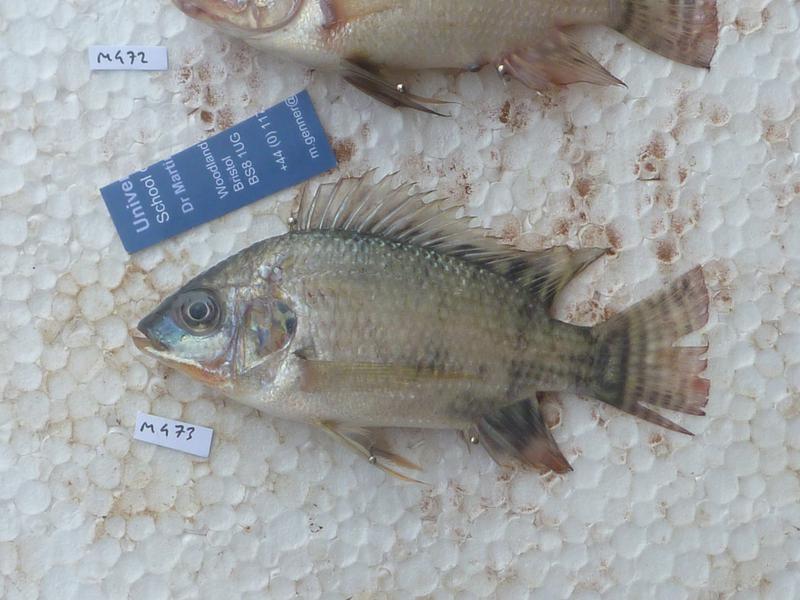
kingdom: Animalia
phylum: Chordata
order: Perciformes
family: Cichlidae
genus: Oreochromis
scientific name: Oreochromis niloticus
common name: Nile tilapia
